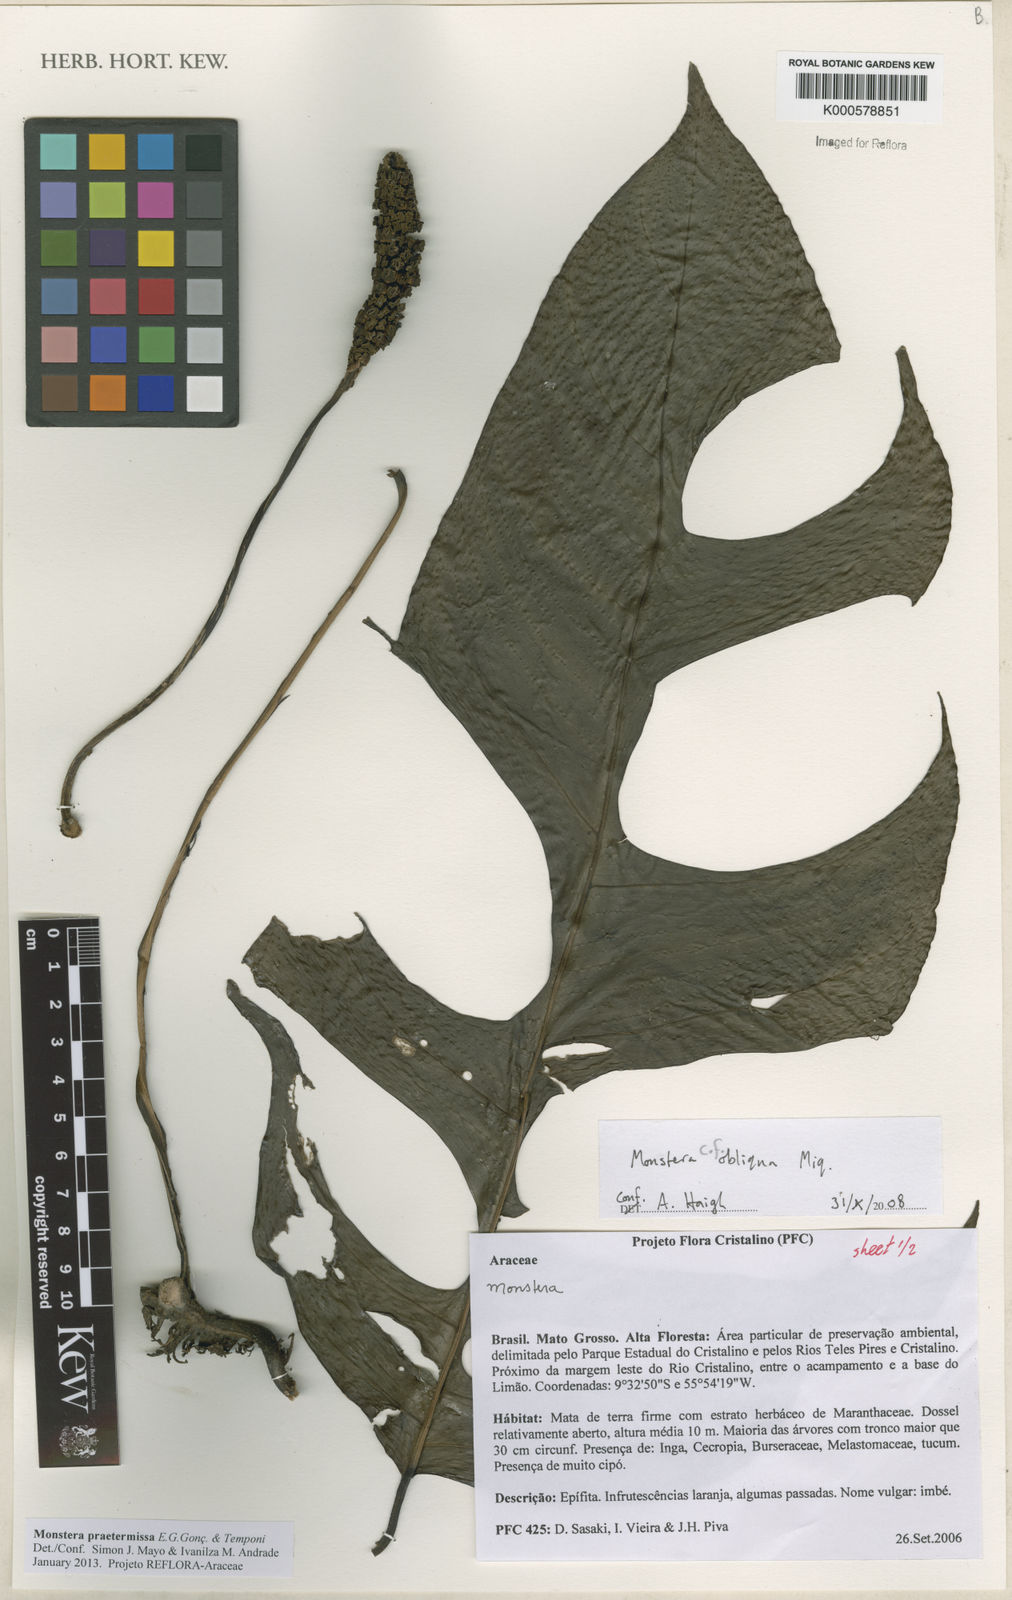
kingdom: Plantae
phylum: Tracheophyta
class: Liliopsida
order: Alismatales
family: Araceae
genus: Monstera
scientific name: Monstera obliqua
